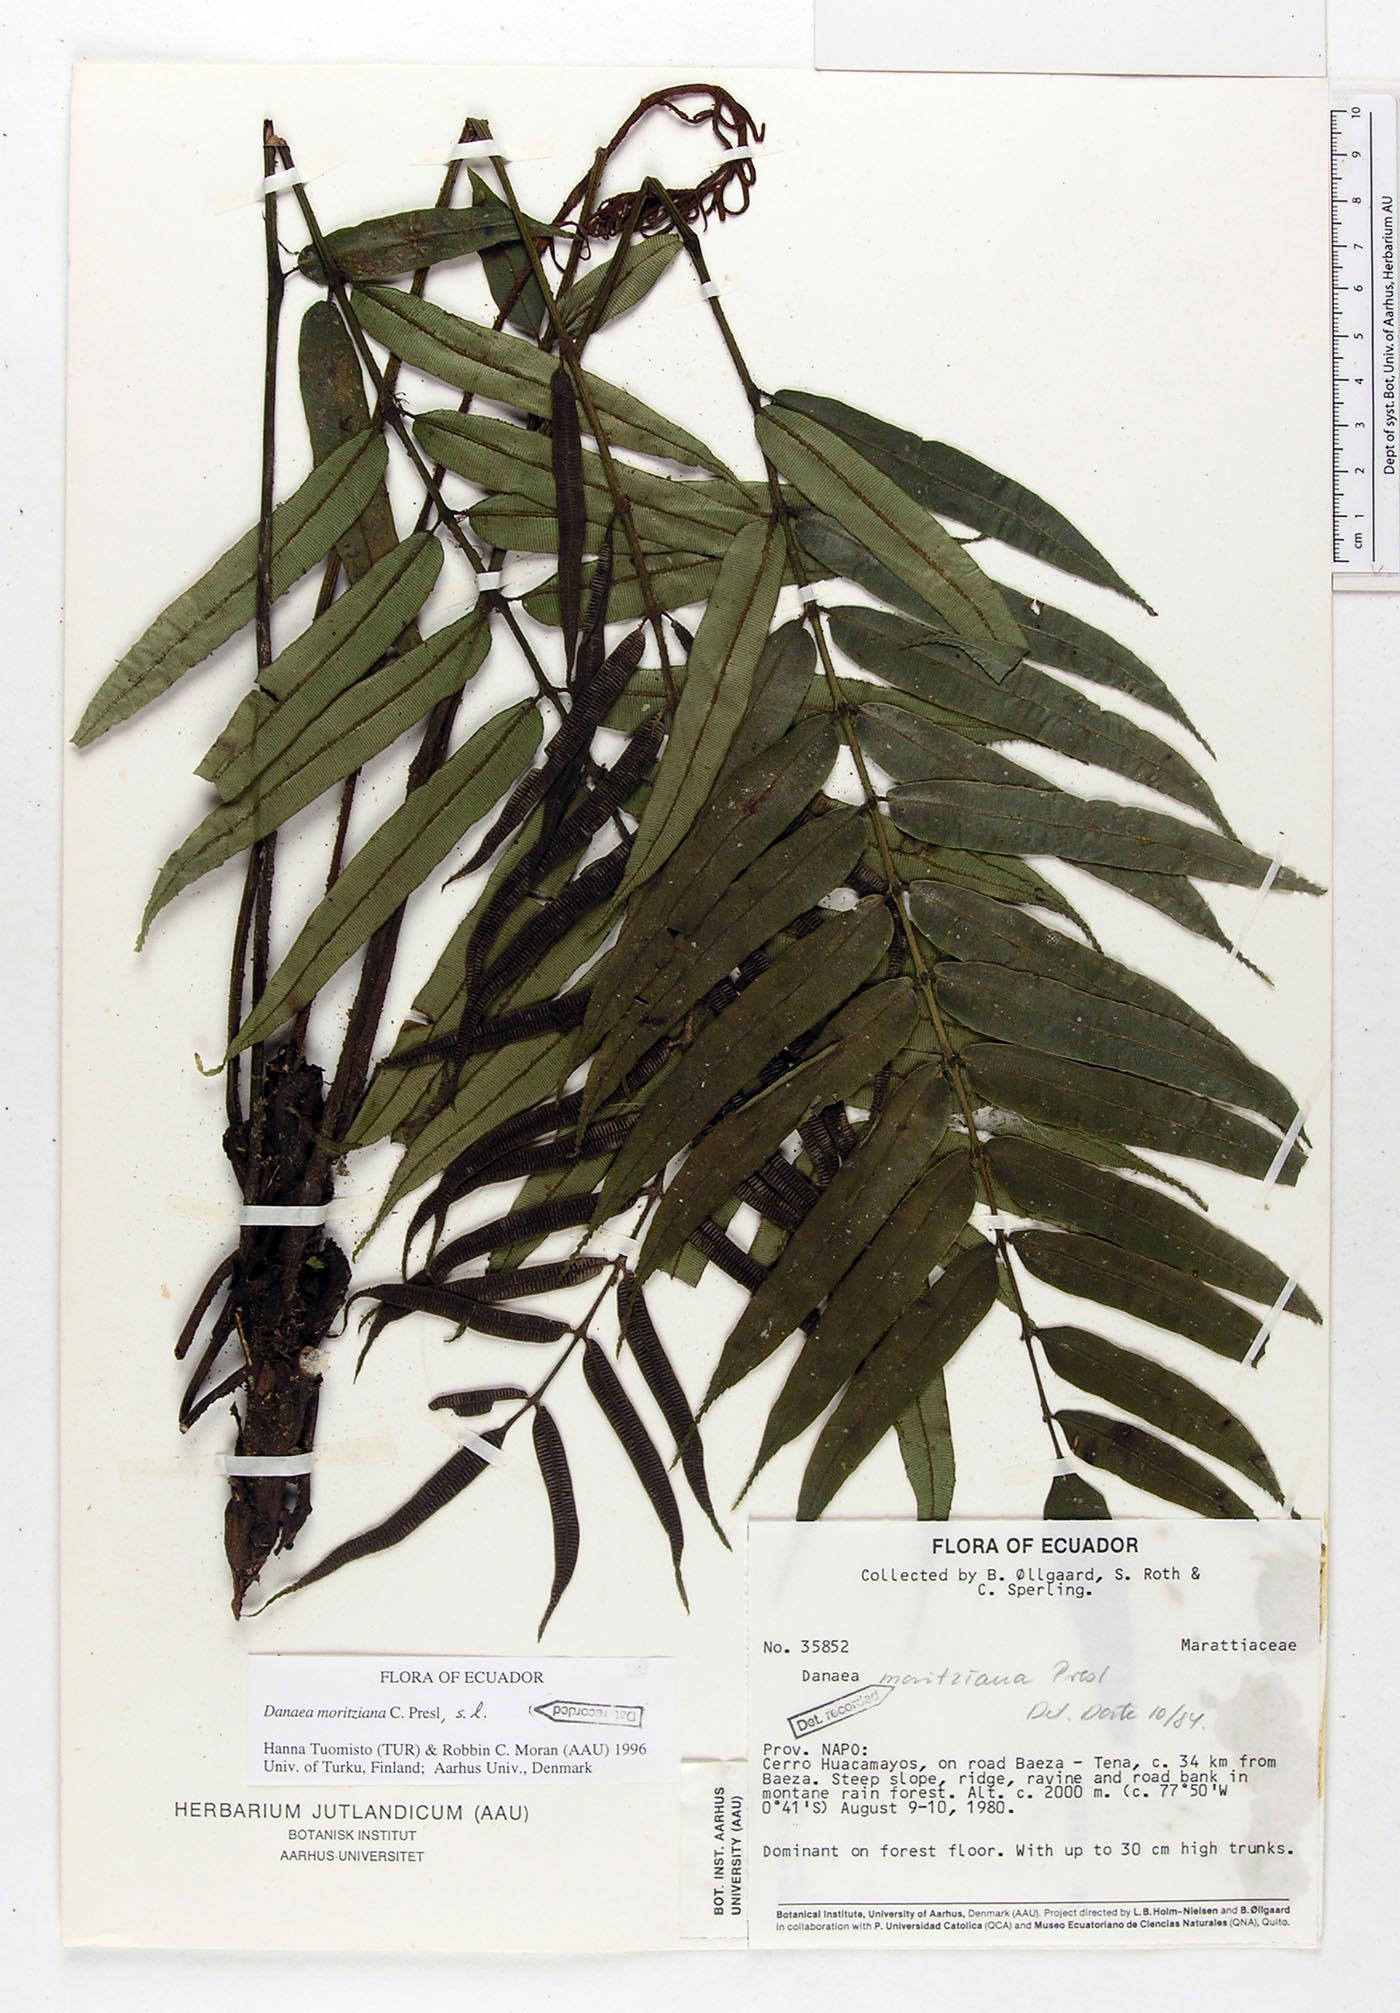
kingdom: Plantae
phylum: Tracheophyta
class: Polypodiopsida
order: Marattiales
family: Marattiaceae
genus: Danaea
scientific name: Danaea moritziana
